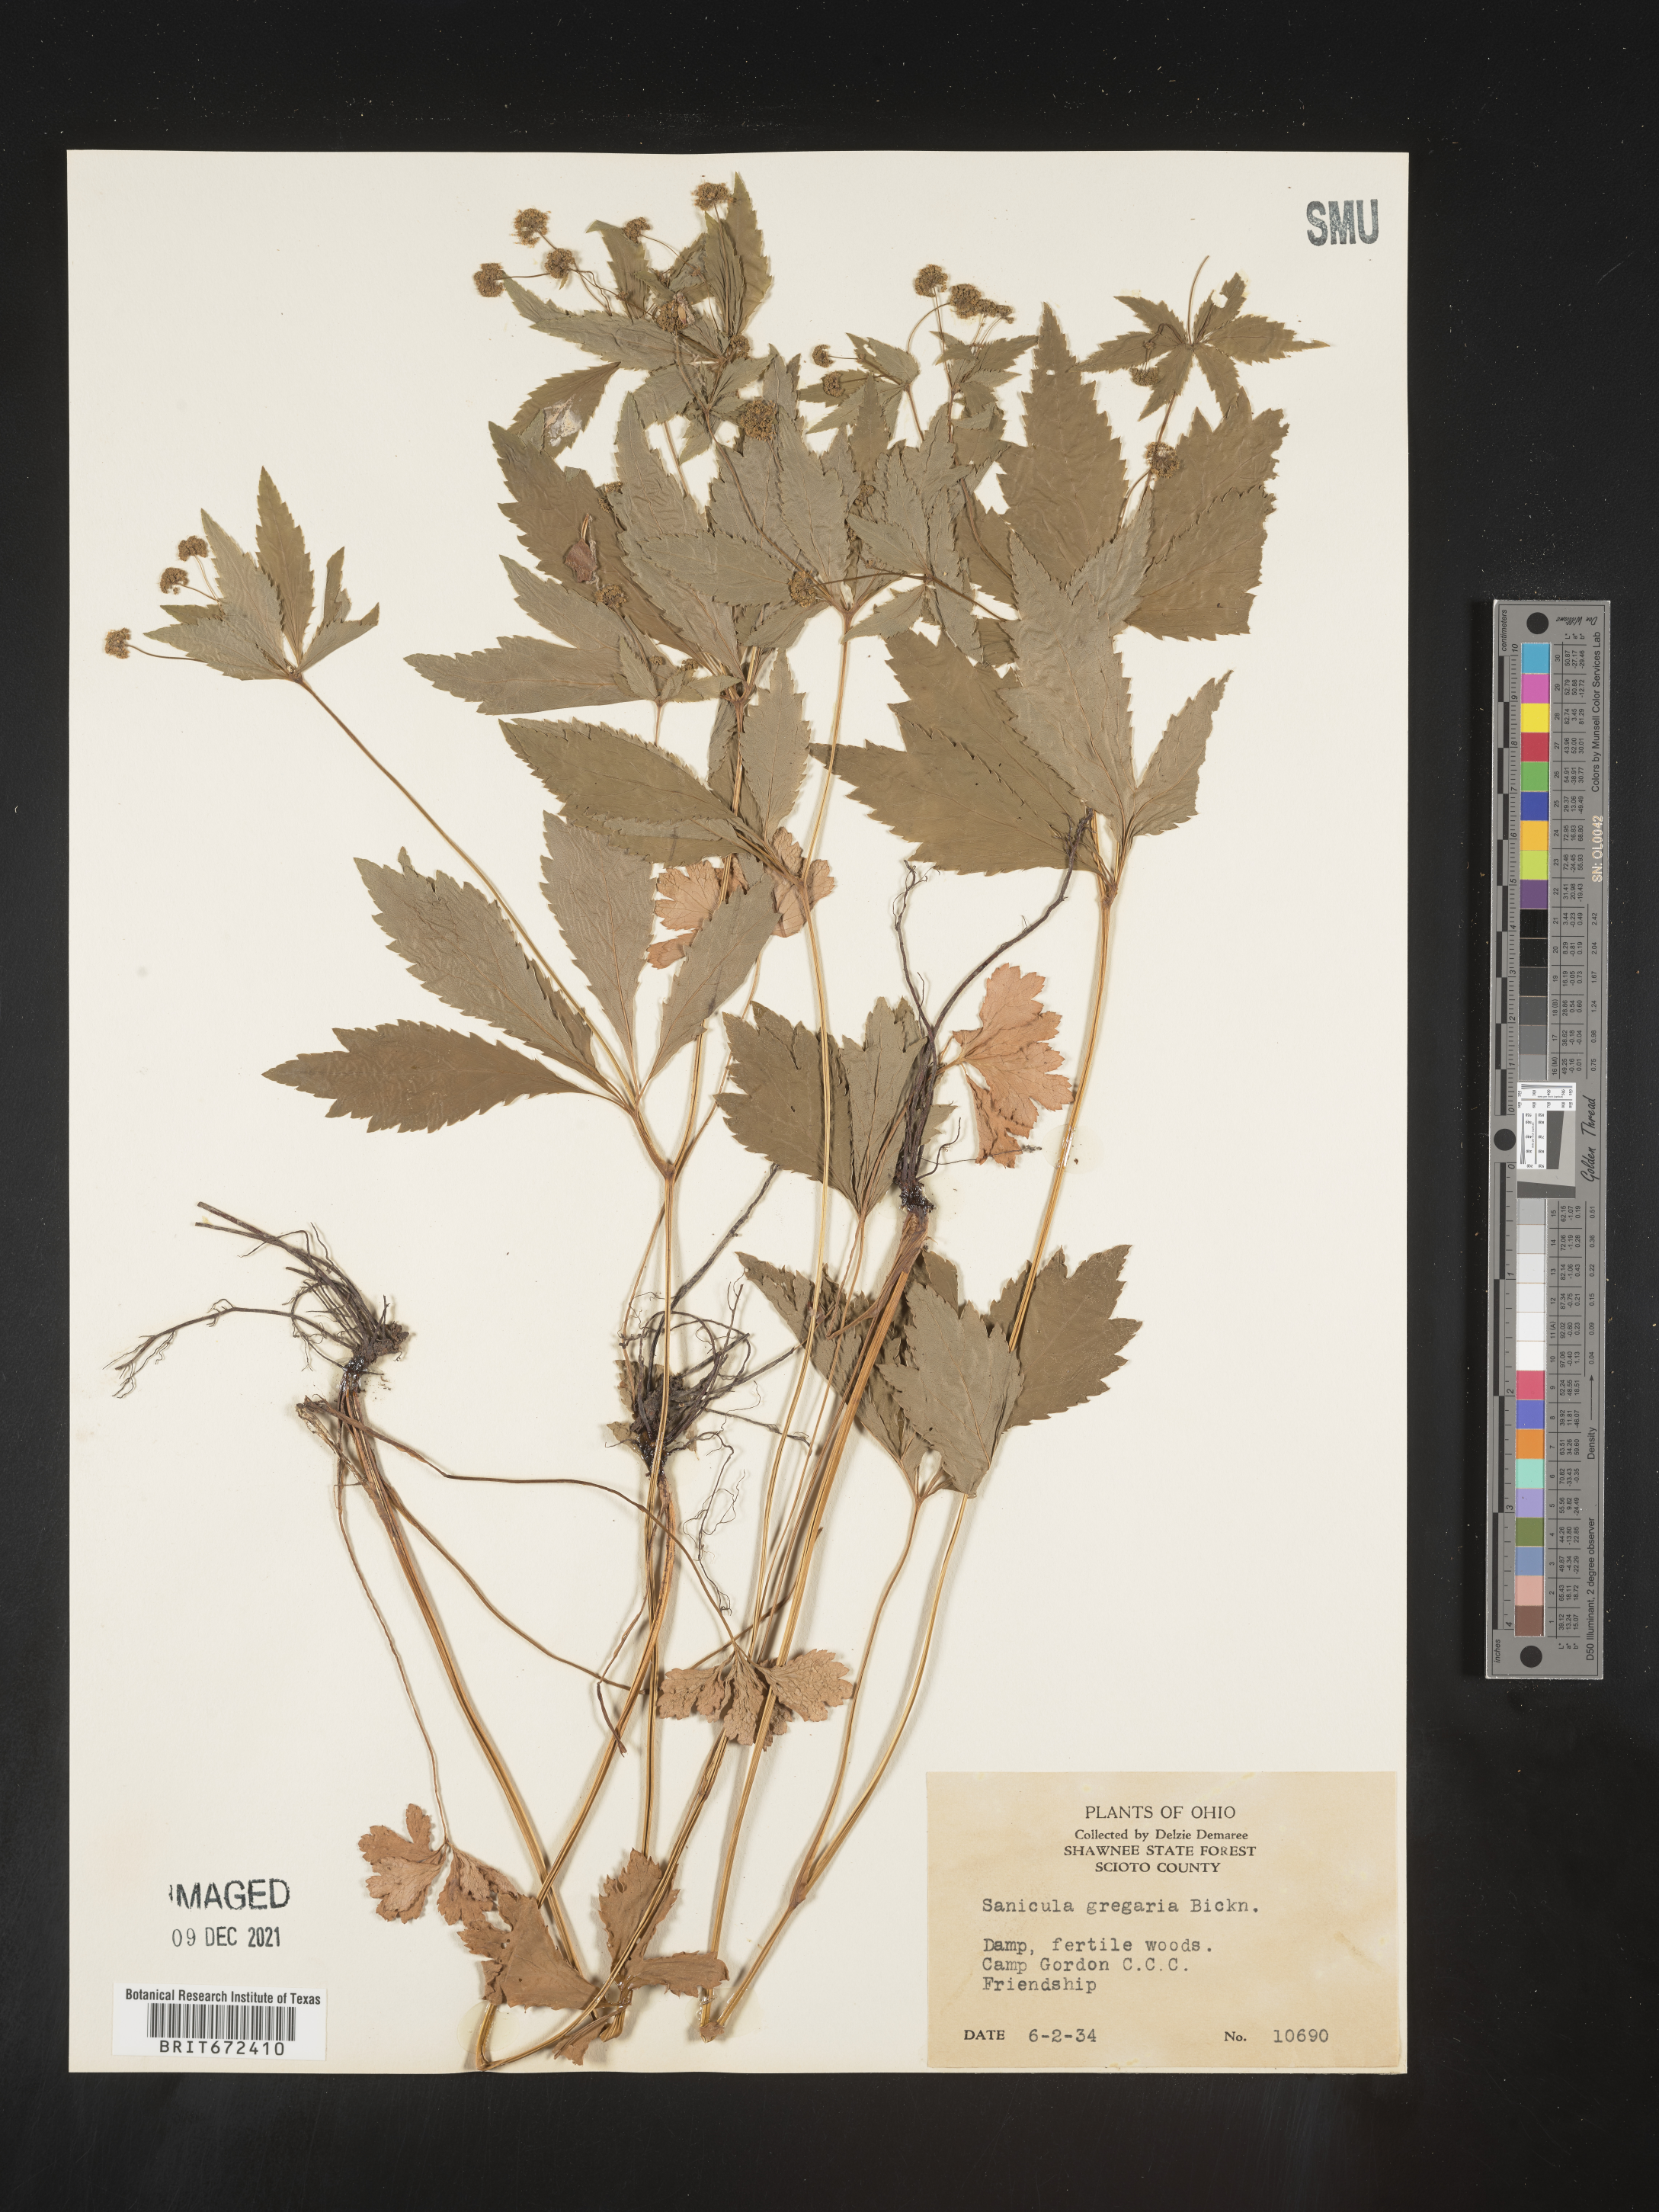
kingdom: Plantae
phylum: Tracheophyta
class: Magnoliopsida
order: Apiales
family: Apiaceae
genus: Sanicula
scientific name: Sanicula odorata
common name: Cluster sanicle
